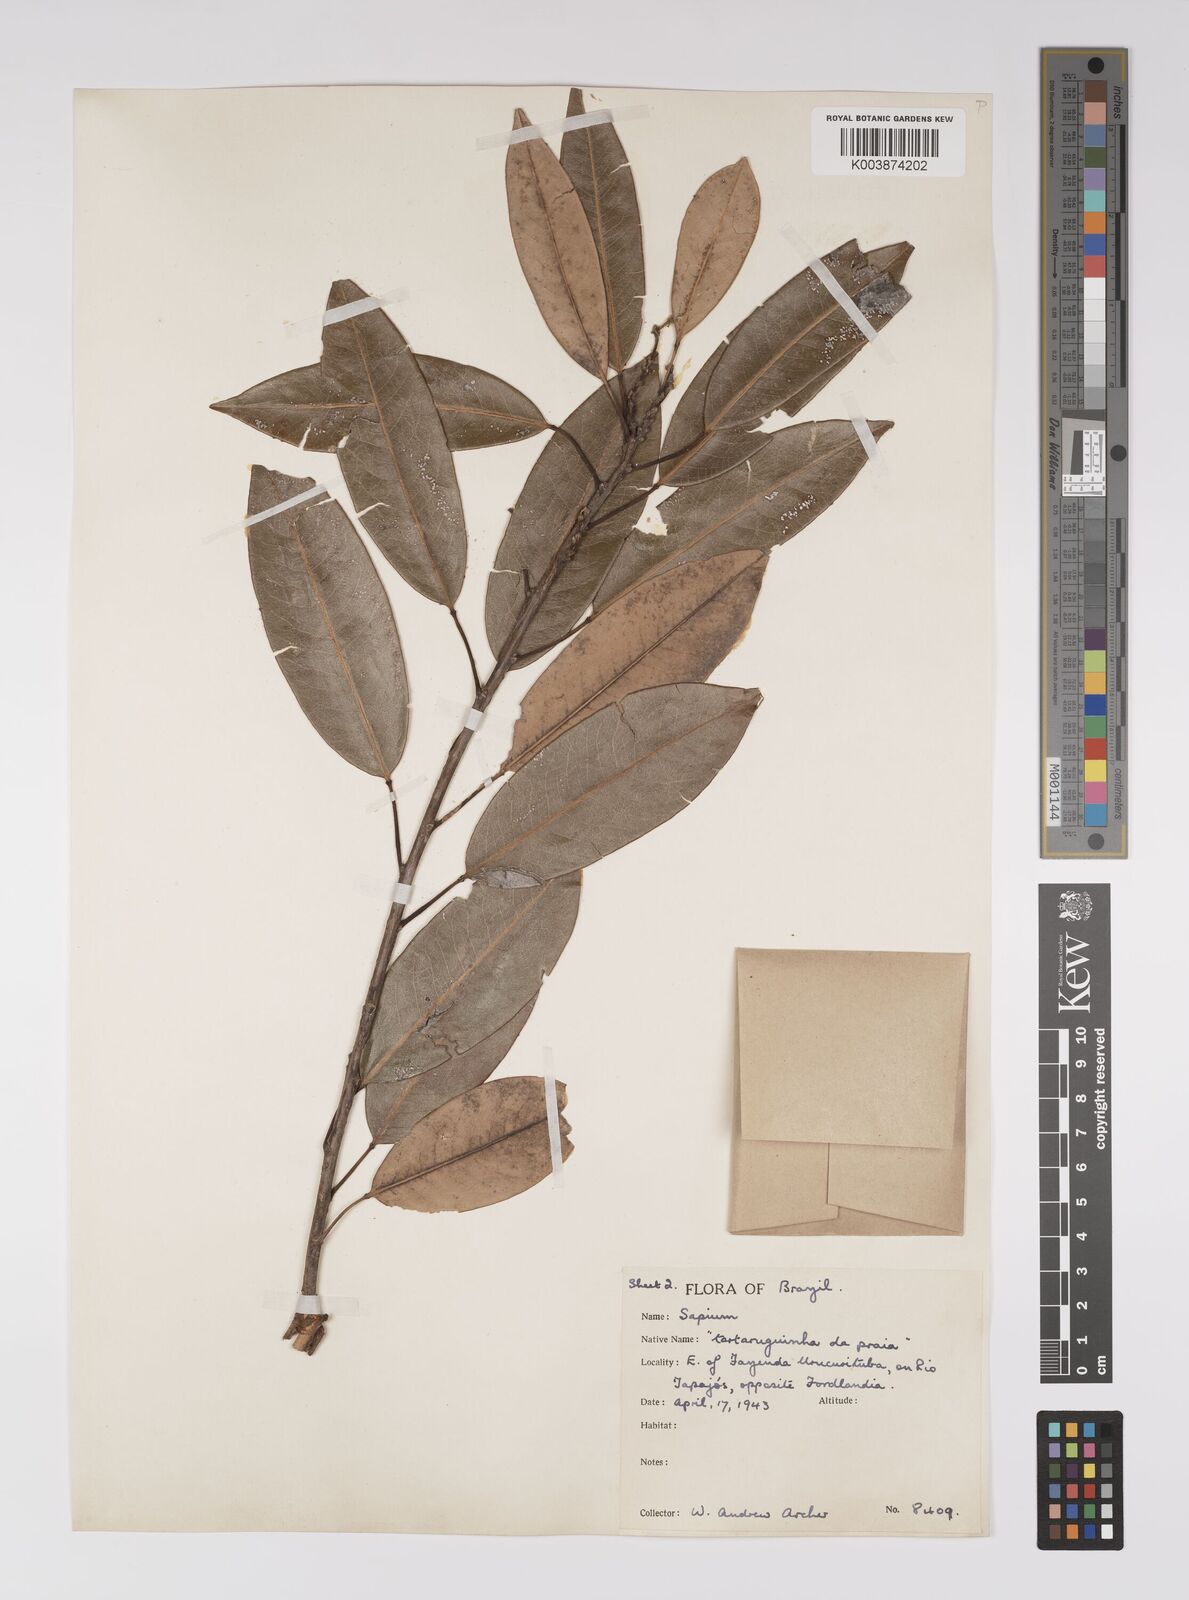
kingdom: Plantae
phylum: Tracheophyta
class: Magnoliopsida
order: Malpighiales
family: Euphorbiaceae
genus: Sapium
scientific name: Sapium
